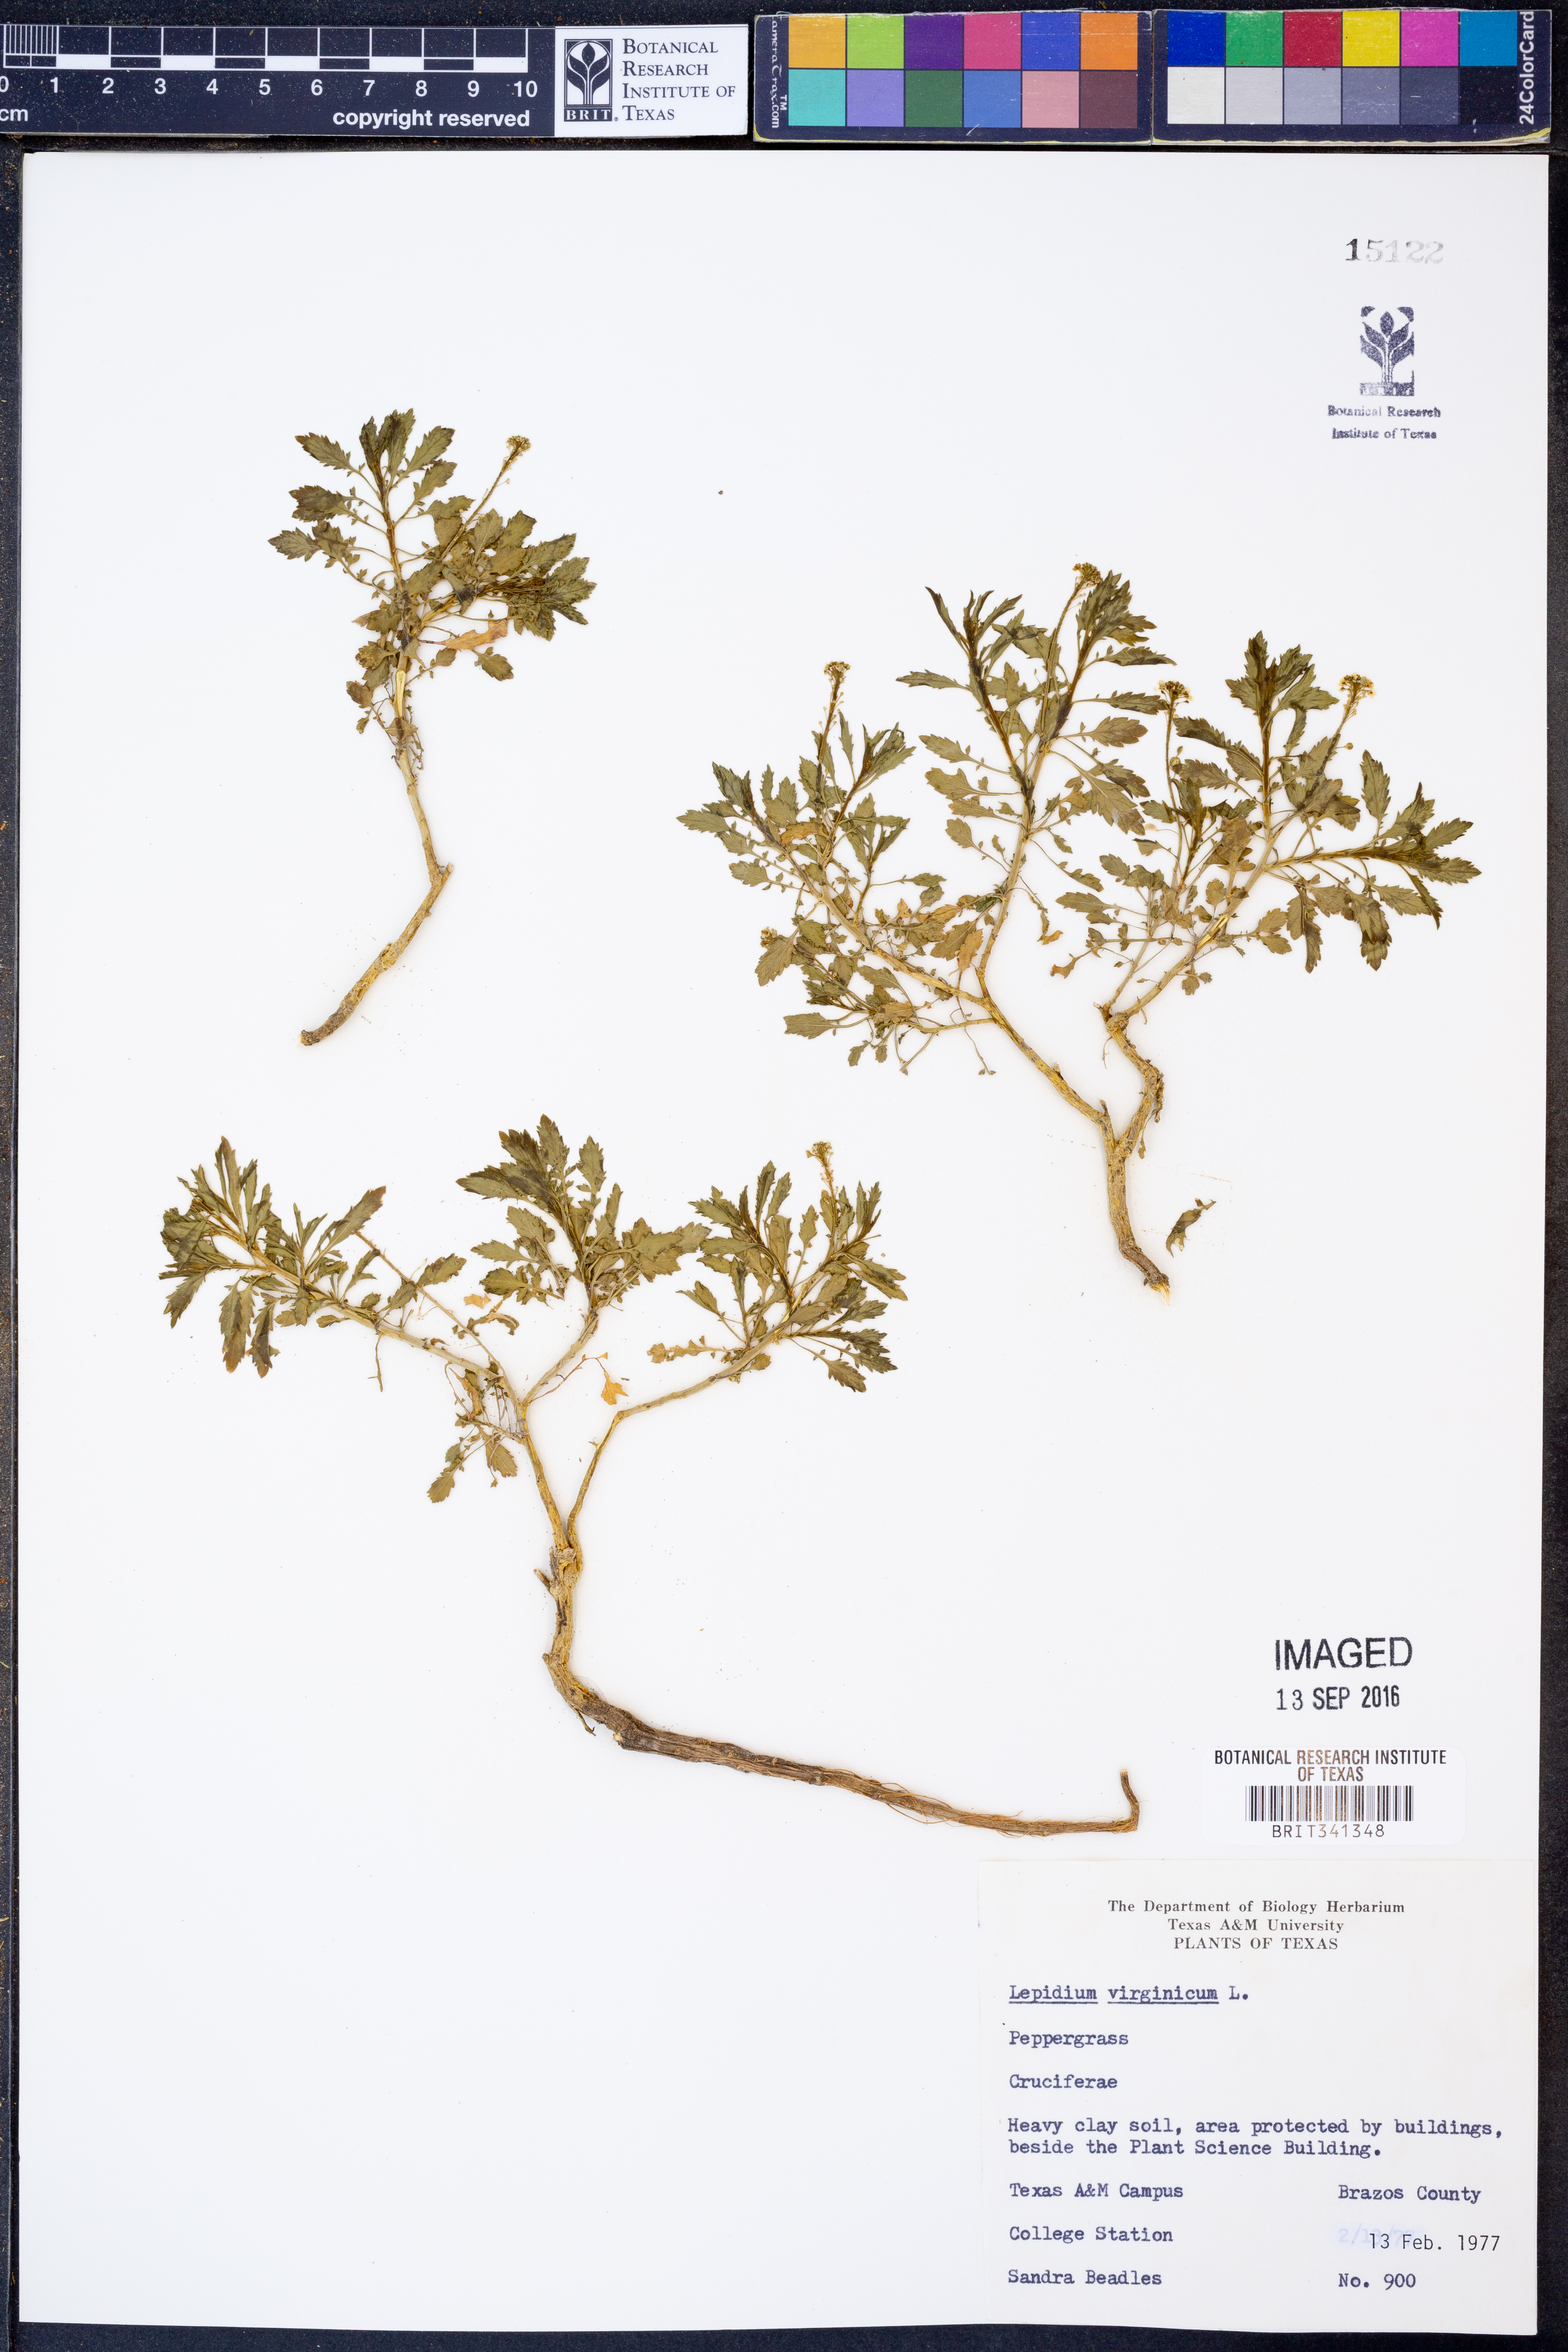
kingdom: Plantae
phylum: Tracheophyta
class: Magnoliopsida
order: Brassicales
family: Brassicaceae
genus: Lepidium
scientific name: Lepidium virginicum
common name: Least pepperwort
